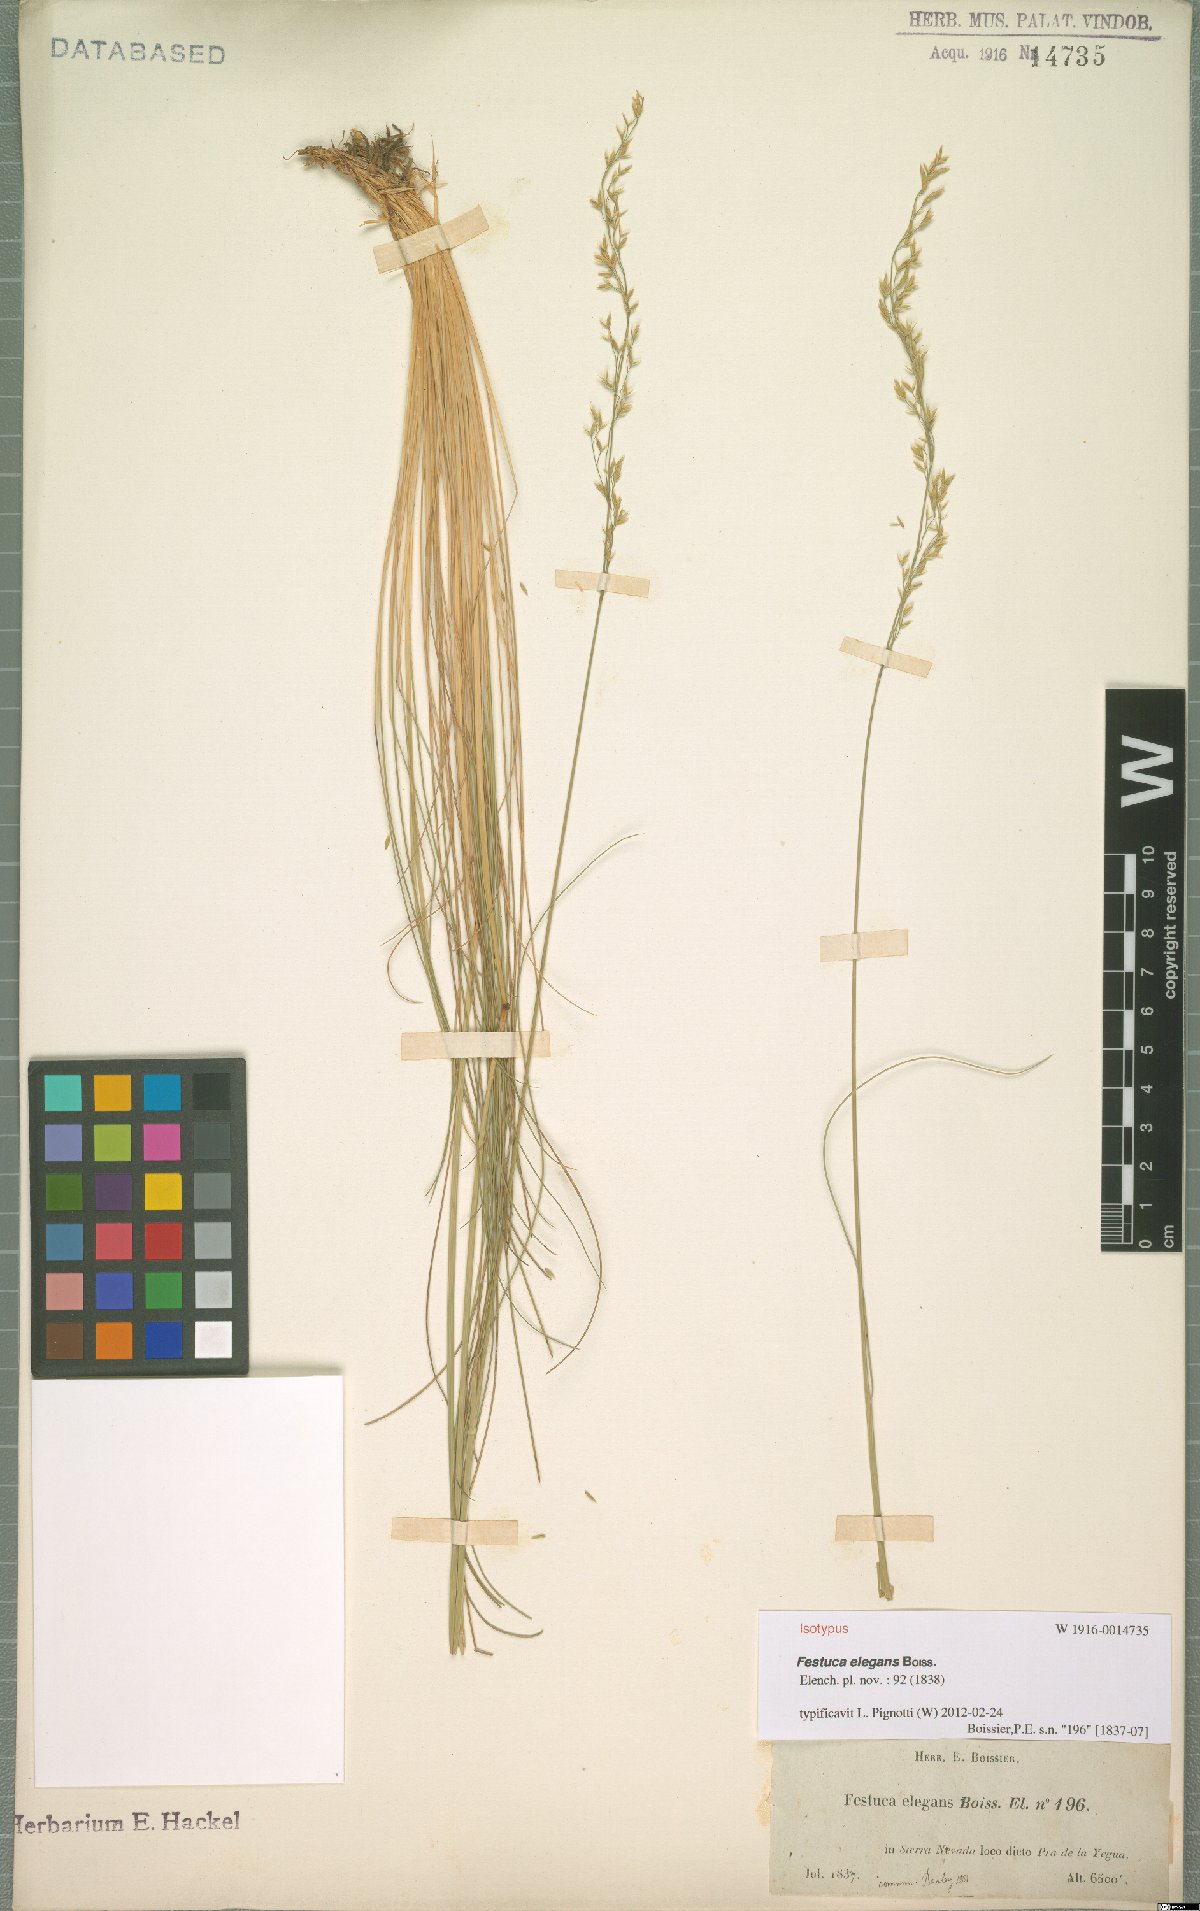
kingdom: Plantae
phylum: Tracheophyta
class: Liliopsida
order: Poales
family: Poaceae
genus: Festuca
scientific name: Festuca elegans
